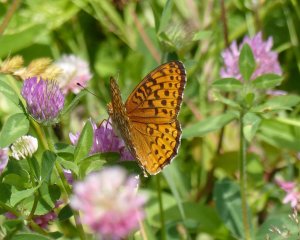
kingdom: Animalia
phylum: Arthropoda
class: Insecta
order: Lepidoptera
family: Nymphalidae
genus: Speyeria
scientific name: Speyeria atlantis
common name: Atlantis Fritillary
